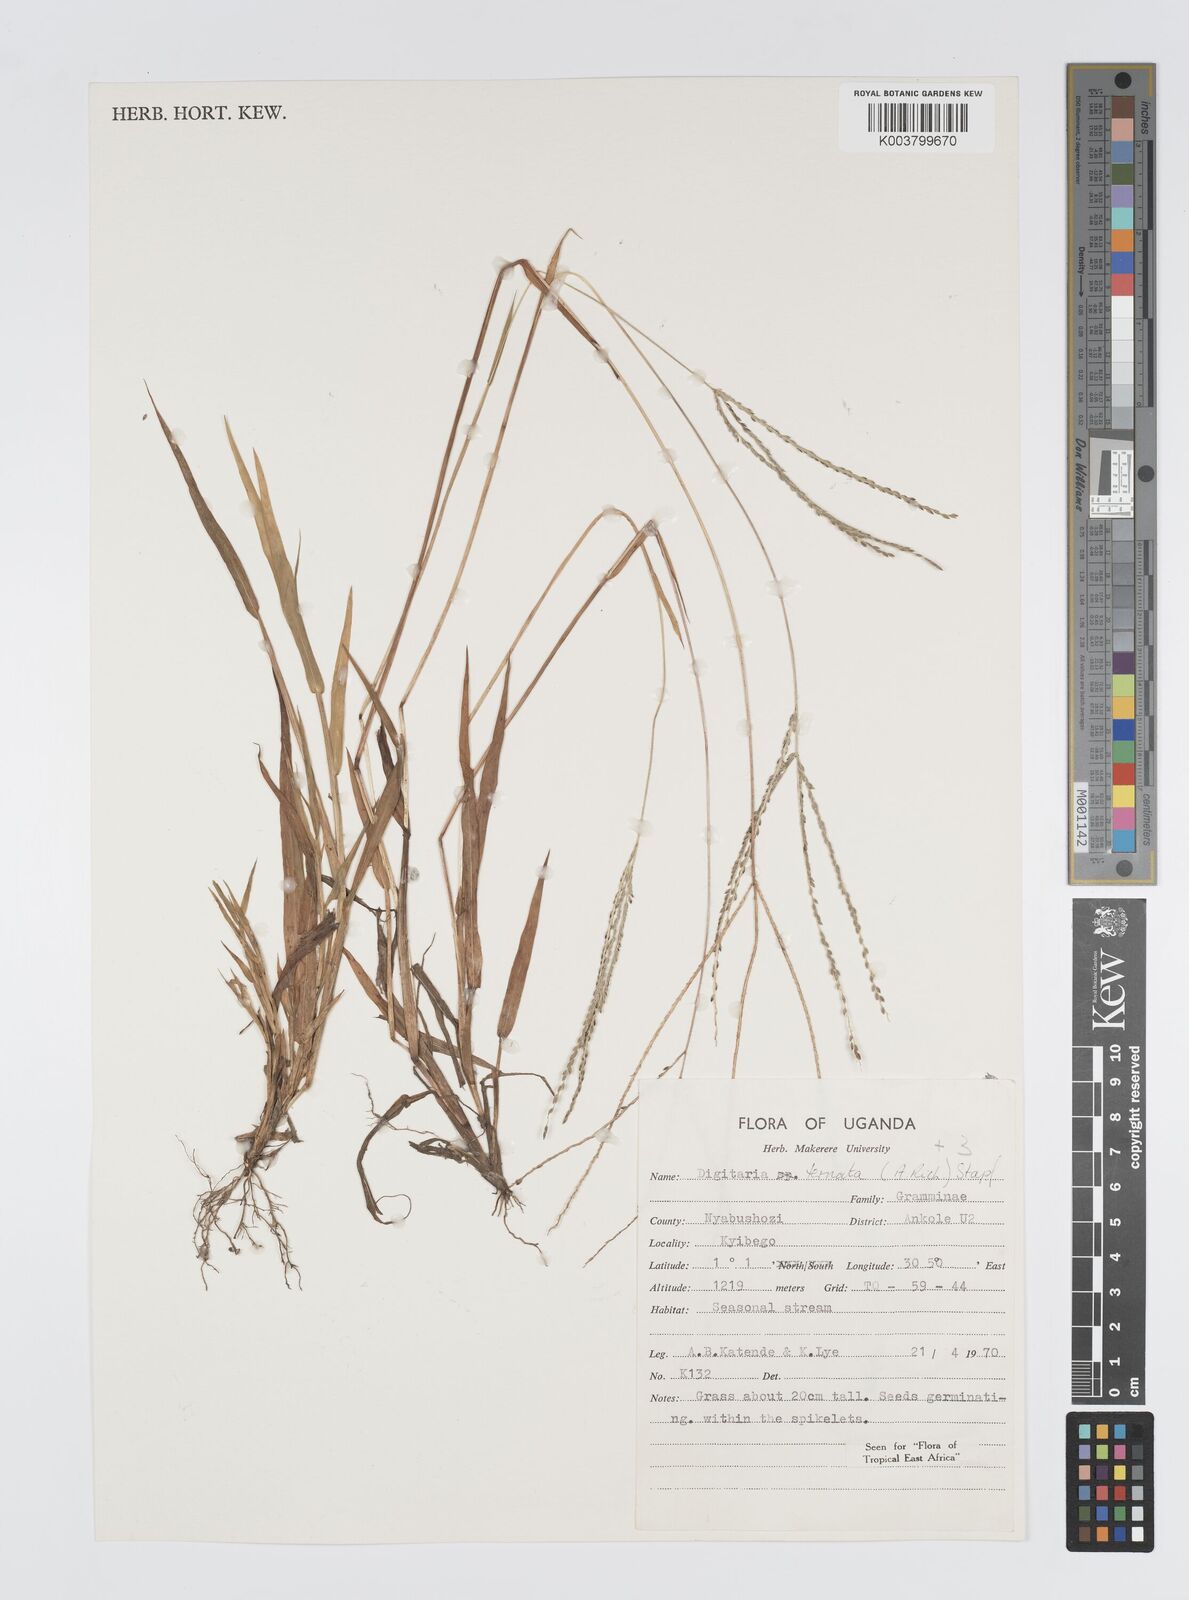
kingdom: Plantae
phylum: Tracheophyta
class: Liliopsida
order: Poales
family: Poaceae
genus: Digitaria
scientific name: Digitaria ternata
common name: Blackseed crabgrass
